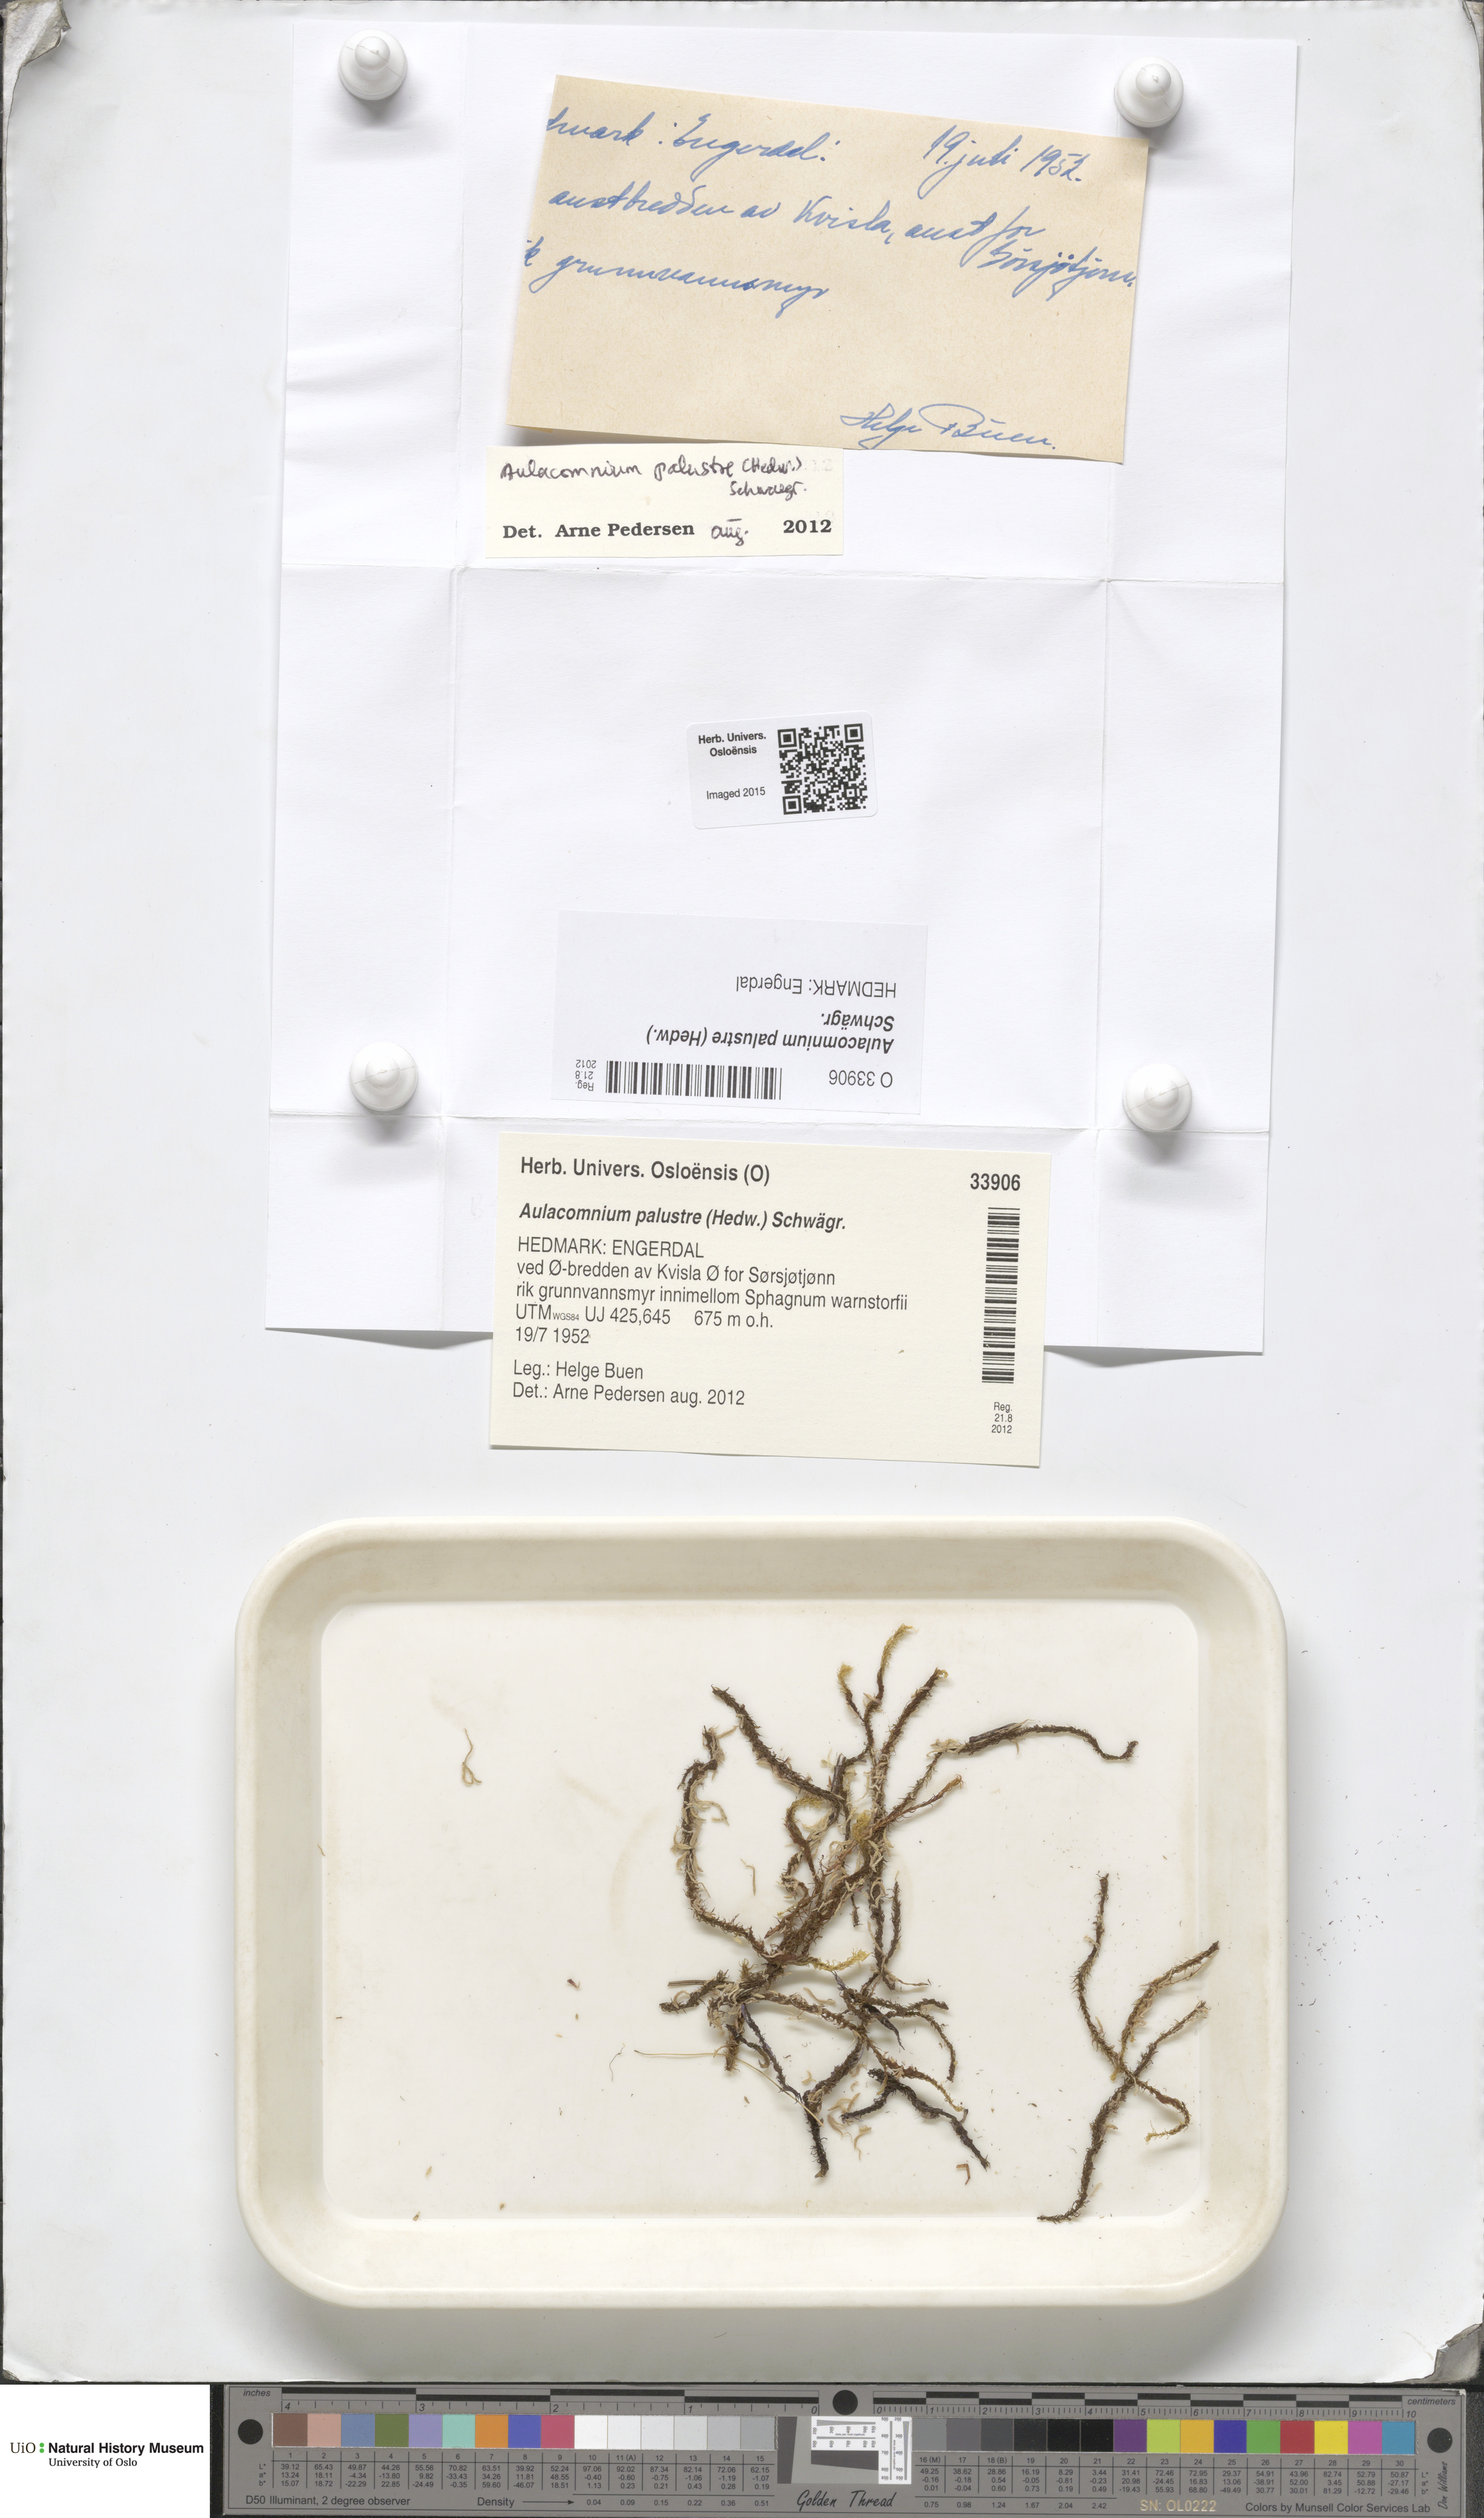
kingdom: Plantae
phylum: Bryophyta
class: Bryopsida
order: Aulacomniales
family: Aulacomniaceae
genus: Aulacomnium
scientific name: Aulacomnium palustre
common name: Bog groove-moss
